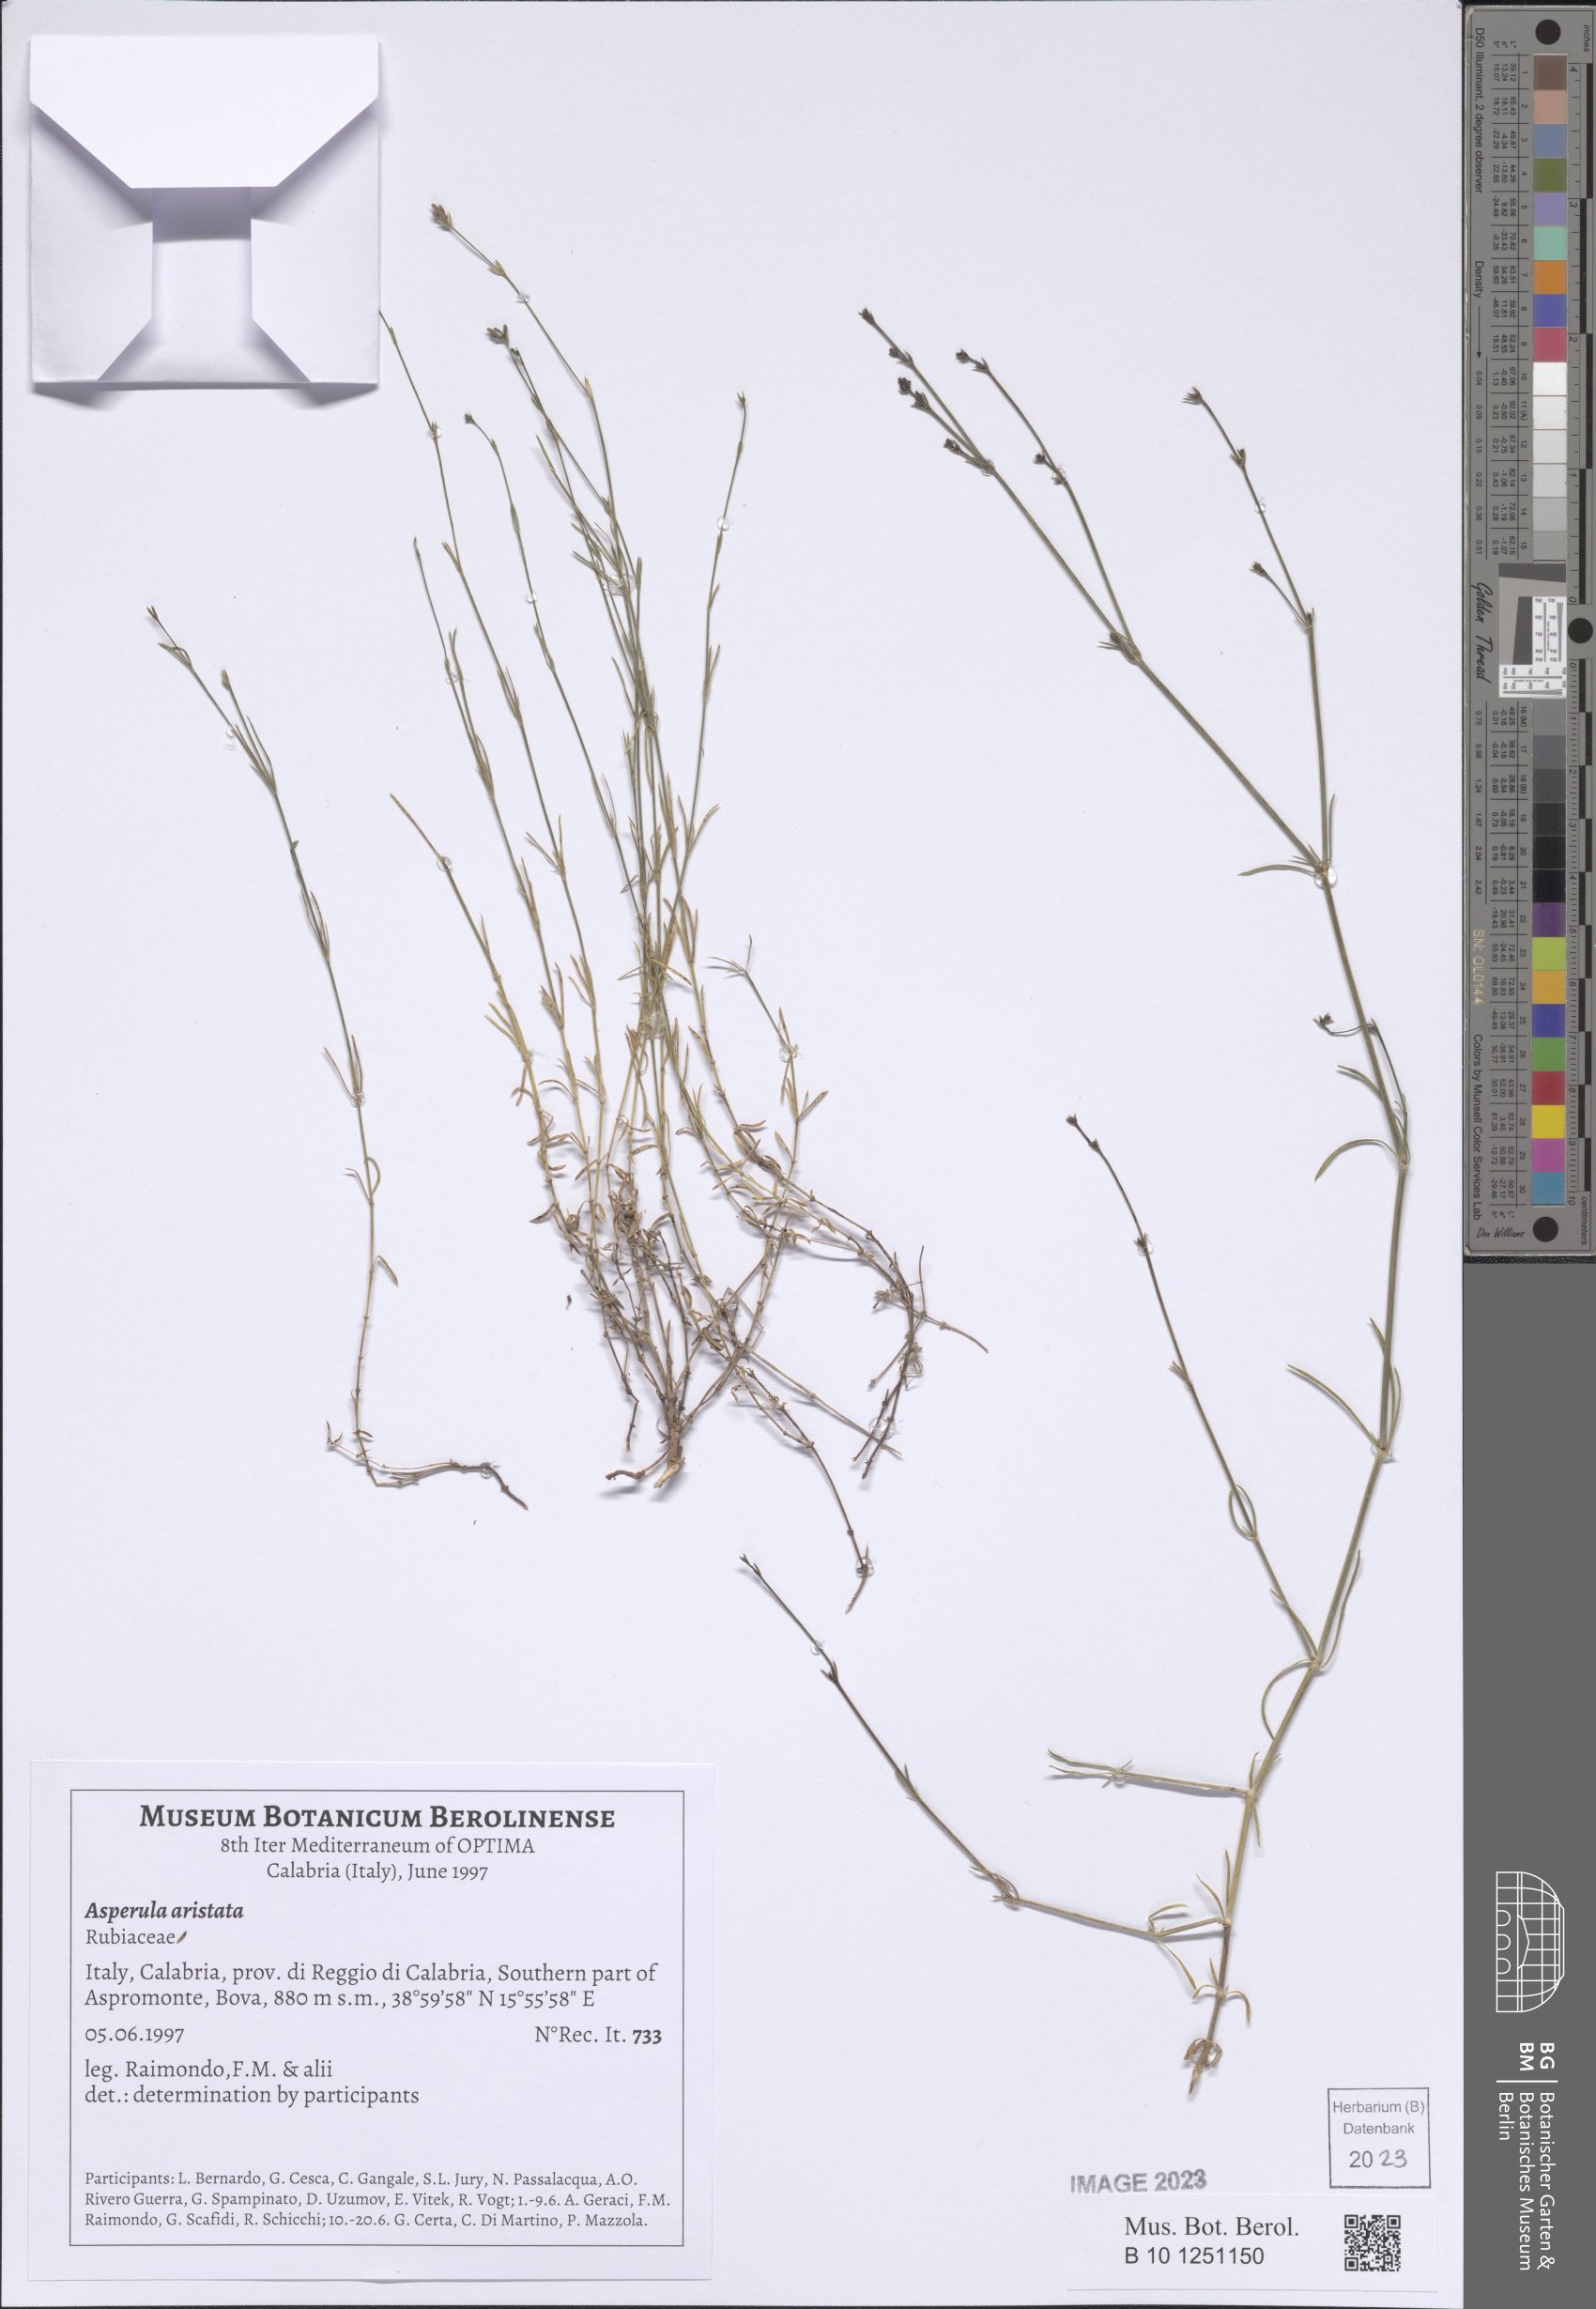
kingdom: Plantae
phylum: Tracheophyta
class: Magnoliopsida
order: Gentianales
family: Rubiaceae
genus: Cynanchica
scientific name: Cynanchica aristata
